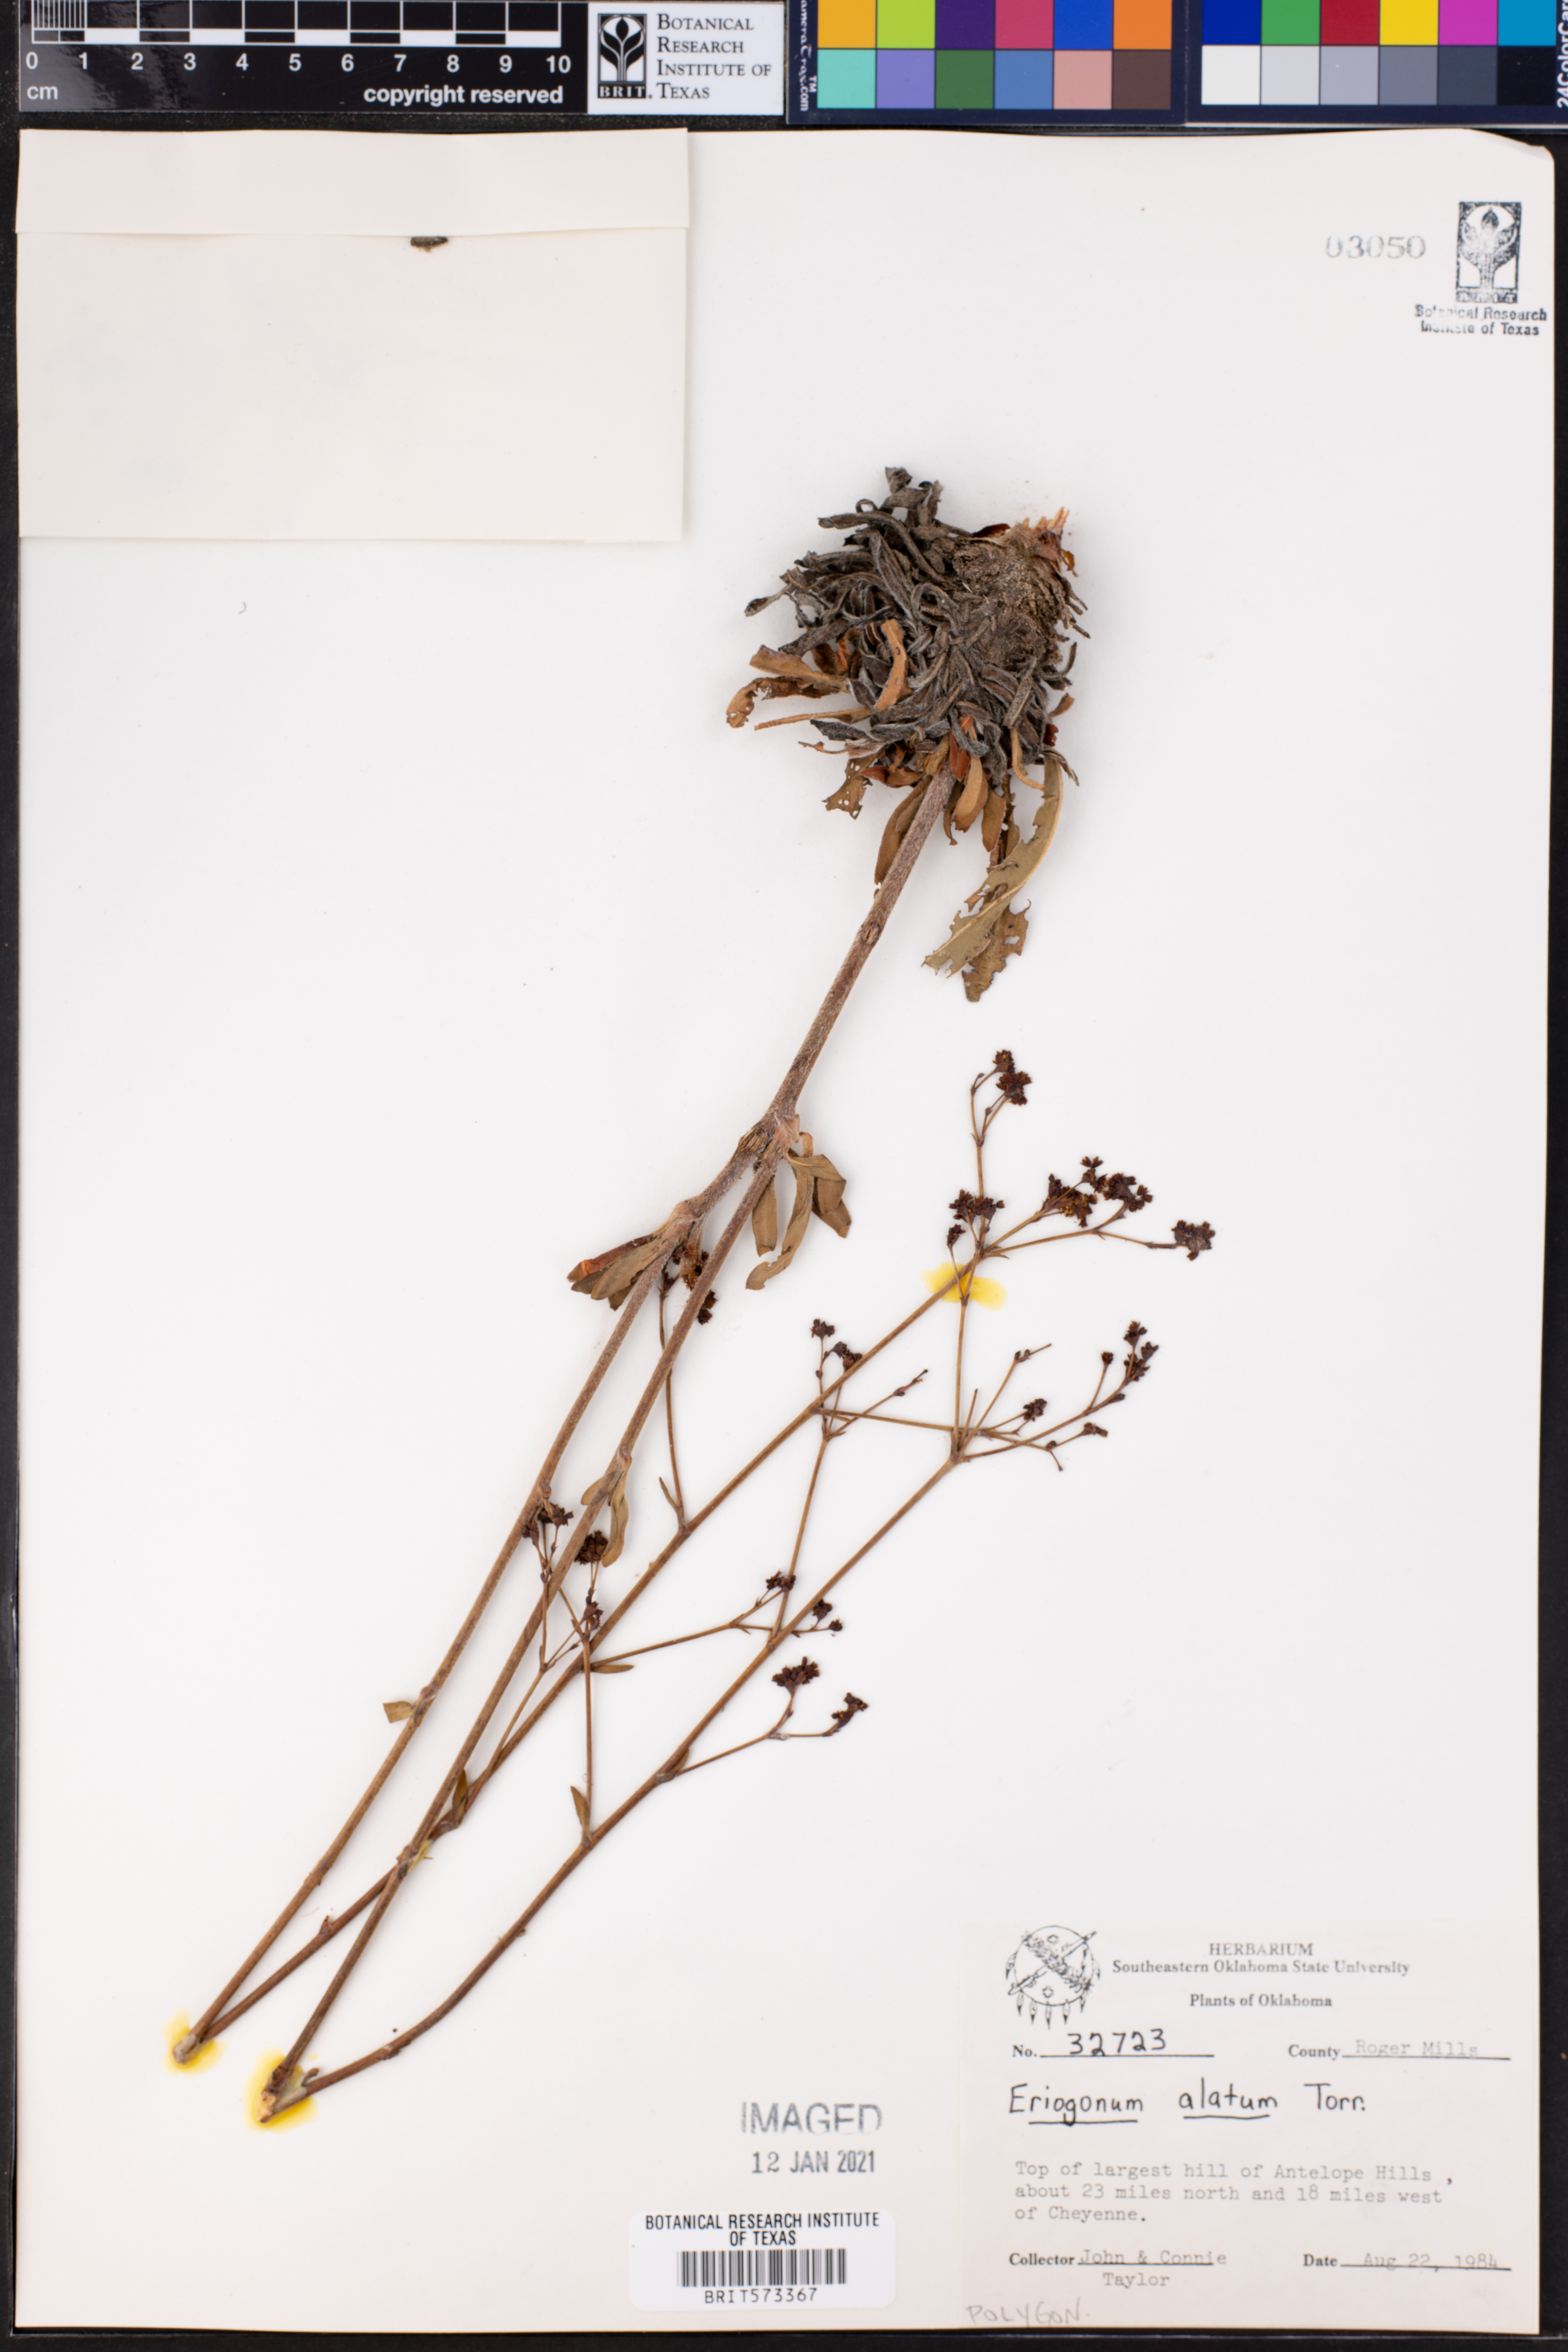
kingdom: Plantae
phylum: Tracheophyta
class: Magnoliopsida
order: Caryophyllales
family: Polygonaceae
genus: Eriogonum
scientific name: Eriogonum alatum
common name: Winged eriogonum
